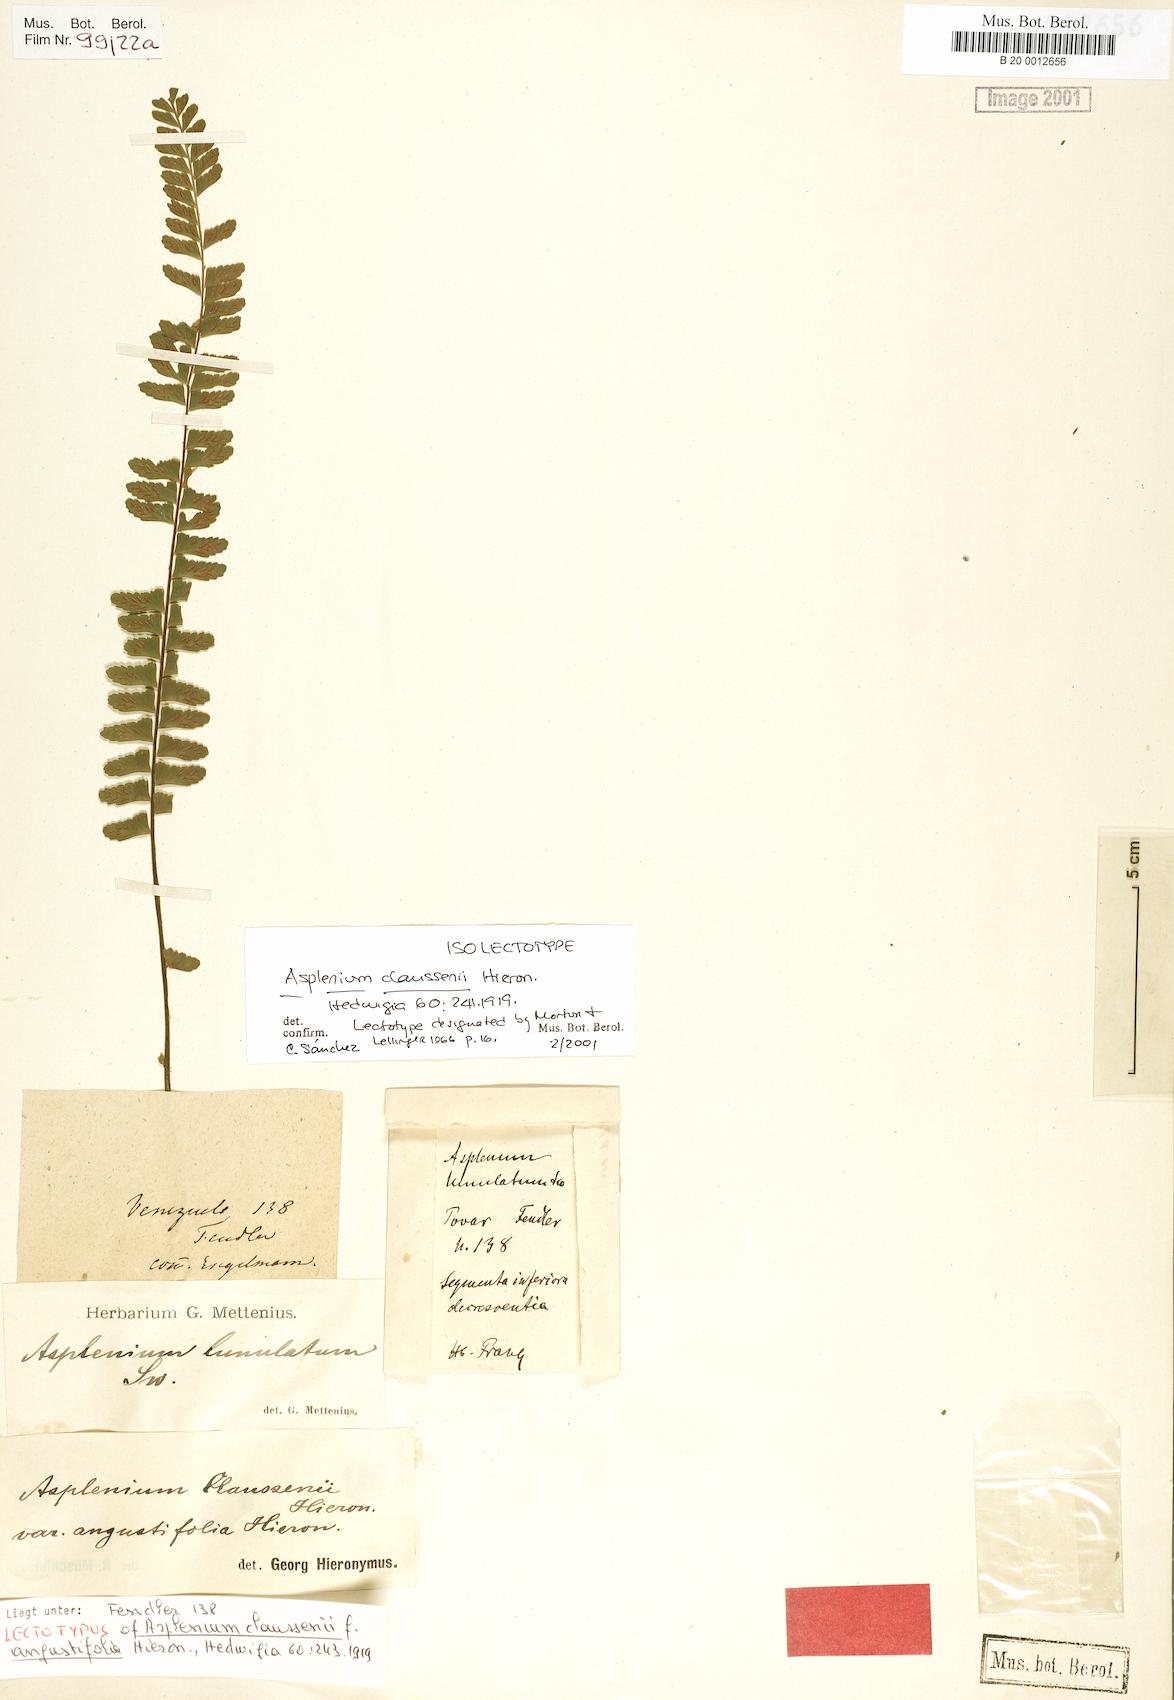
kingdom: Plantae
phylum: Tracheophyta
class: Polypodiopsida
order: Polypodiales
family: Aspleniaceae
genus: Asplenium
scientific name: Asplenium claussenii
